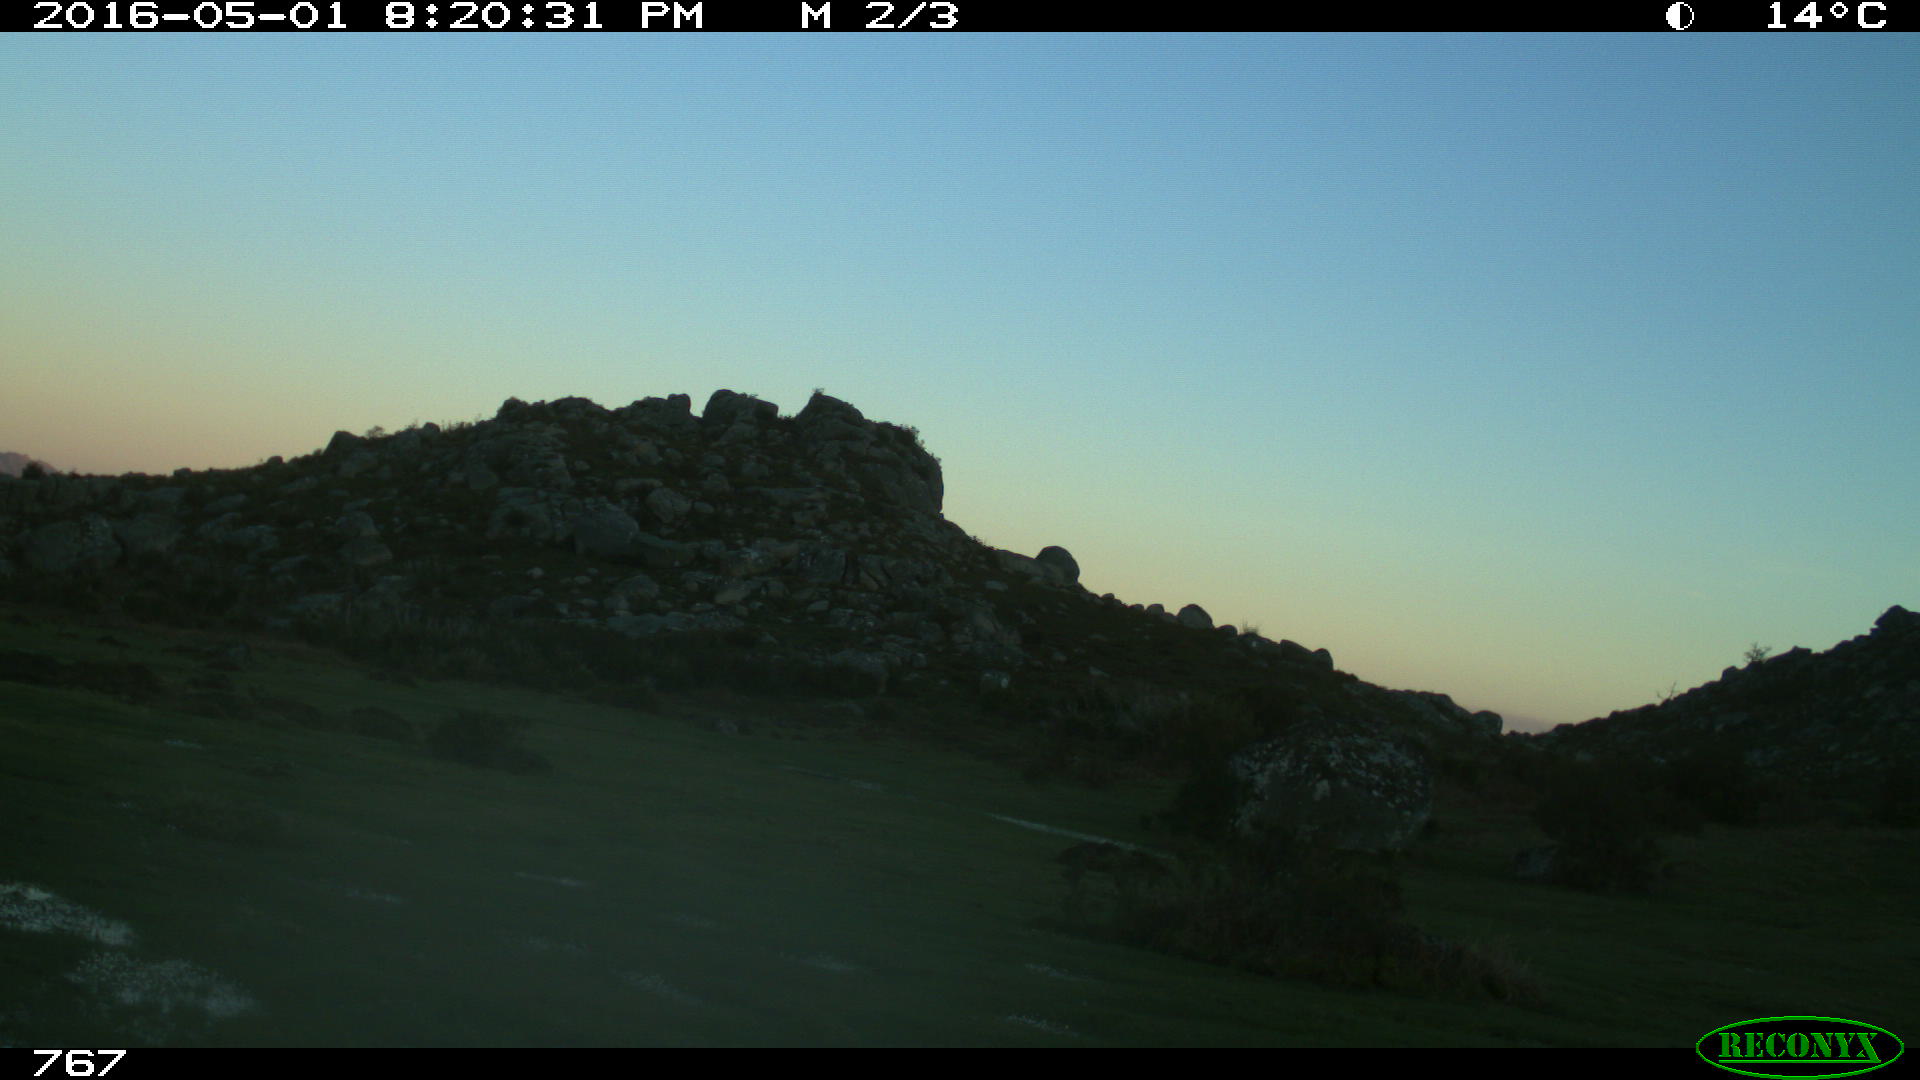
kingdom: Animalia
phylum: Chordata
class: Mammalia
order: Artiodactyla
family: Bovidae
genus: Bos
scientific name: Bos taurus
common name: Domesticated cattle
